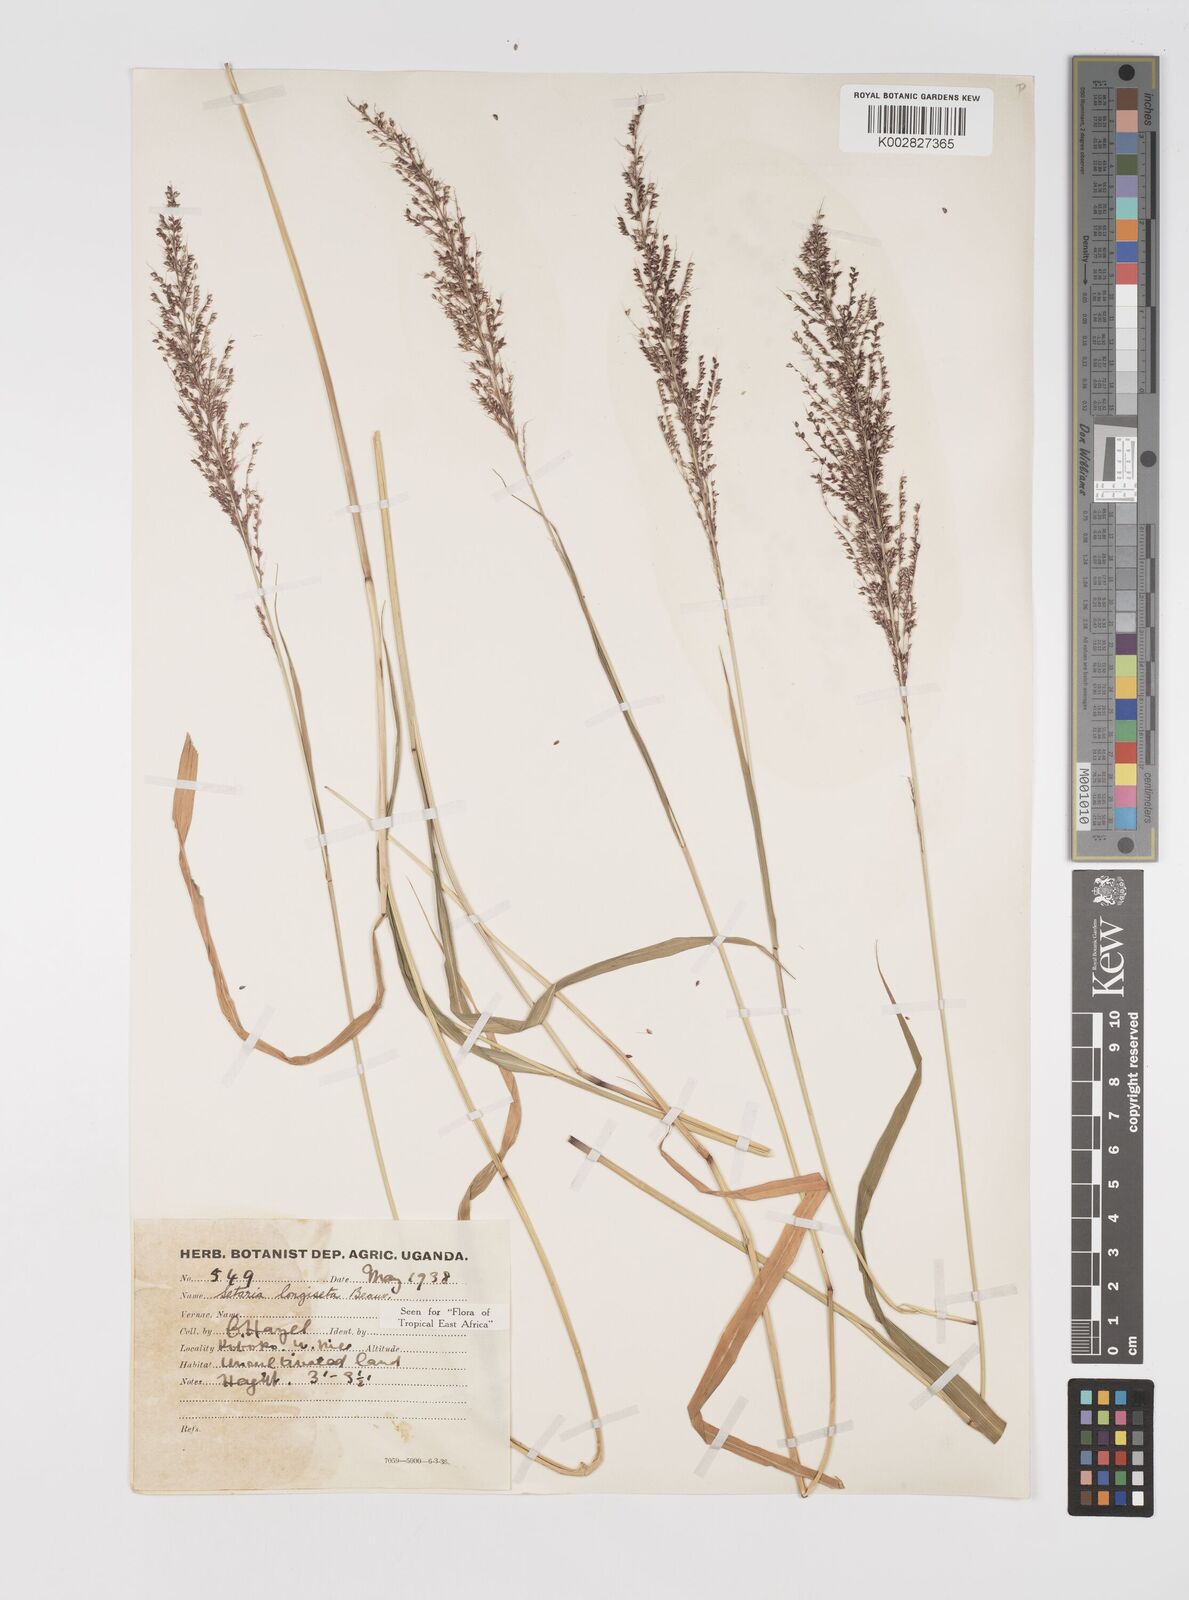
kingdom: Plantae
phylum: Tracheophyta
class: Liliopsida
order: Poales
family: Poaceae
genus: Setaria
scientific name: Setaria longiseta
